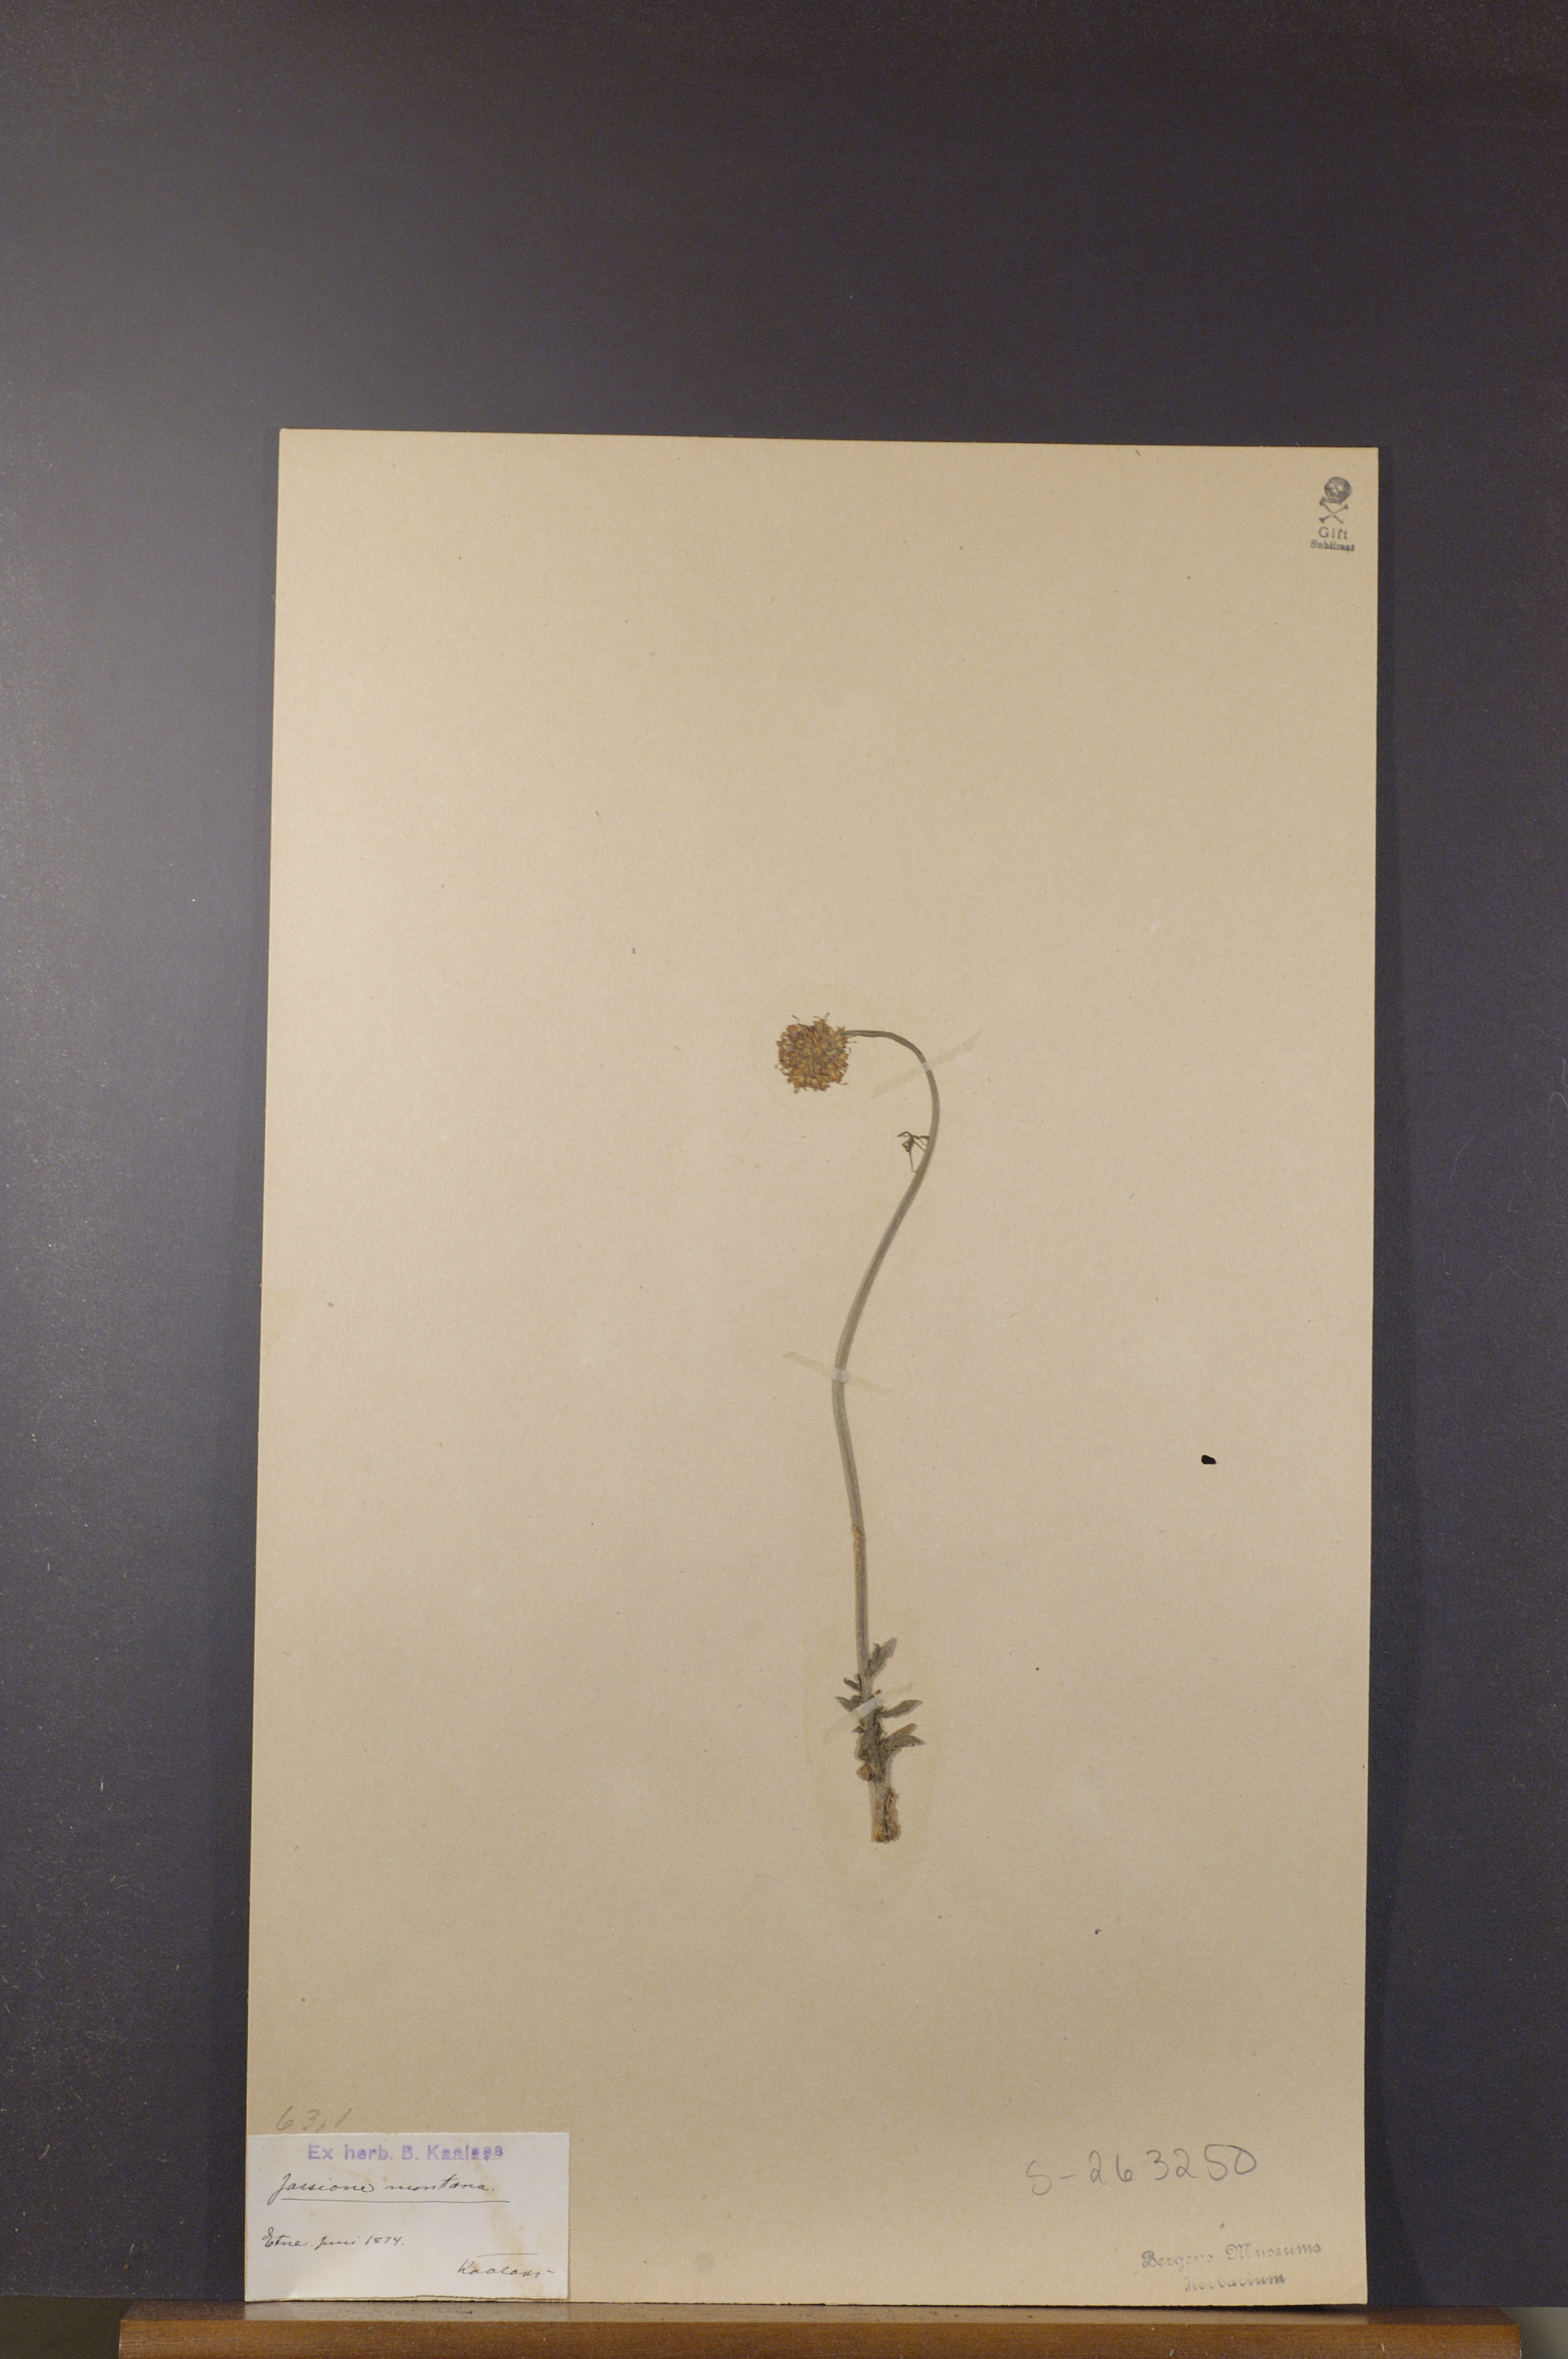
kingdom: Plantae
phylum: Tracheophyta
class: Magnoliopsida
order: Asterales
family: Campanulaceae
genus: Jasione
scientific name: Jasione montana
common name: Sheep's-bit
